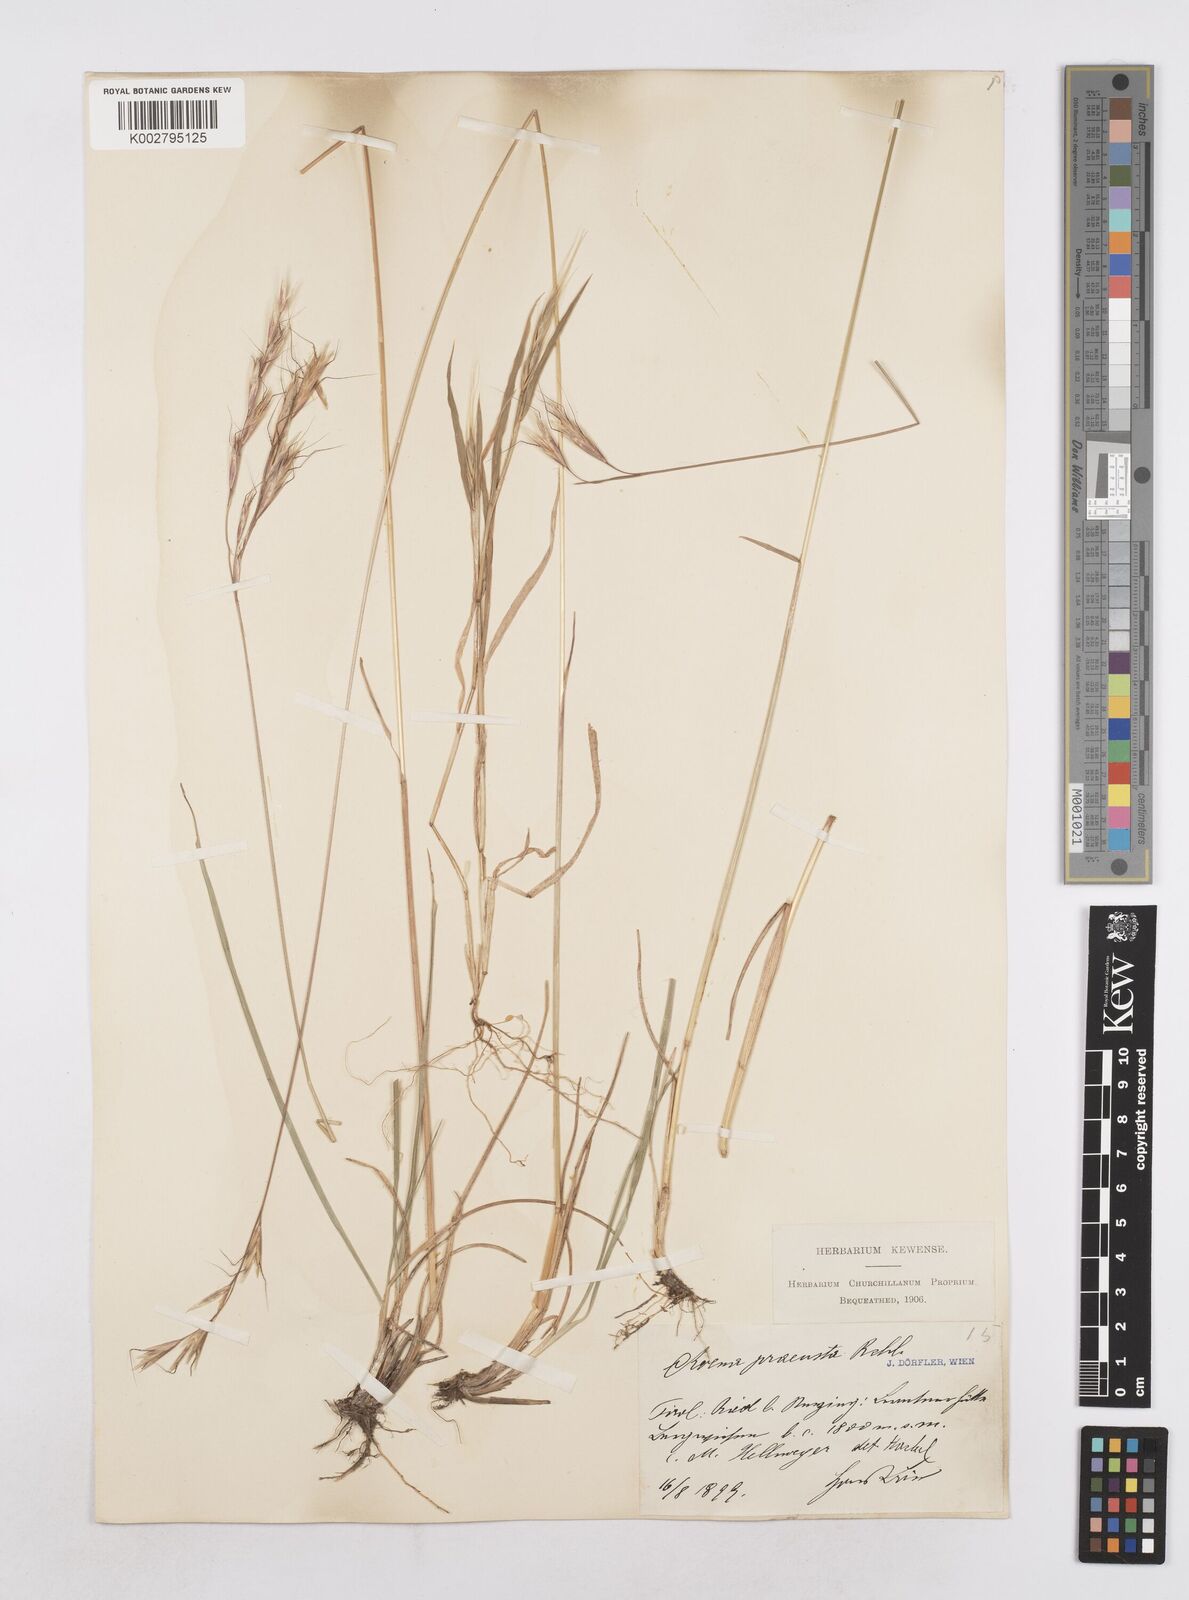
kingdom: Plantae
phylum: Tracheophyta
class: Liliopsida
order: Poales
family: Poaceae
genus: Helictochloa
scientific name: Helictochloa pratensis
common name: Meadow oat grass
